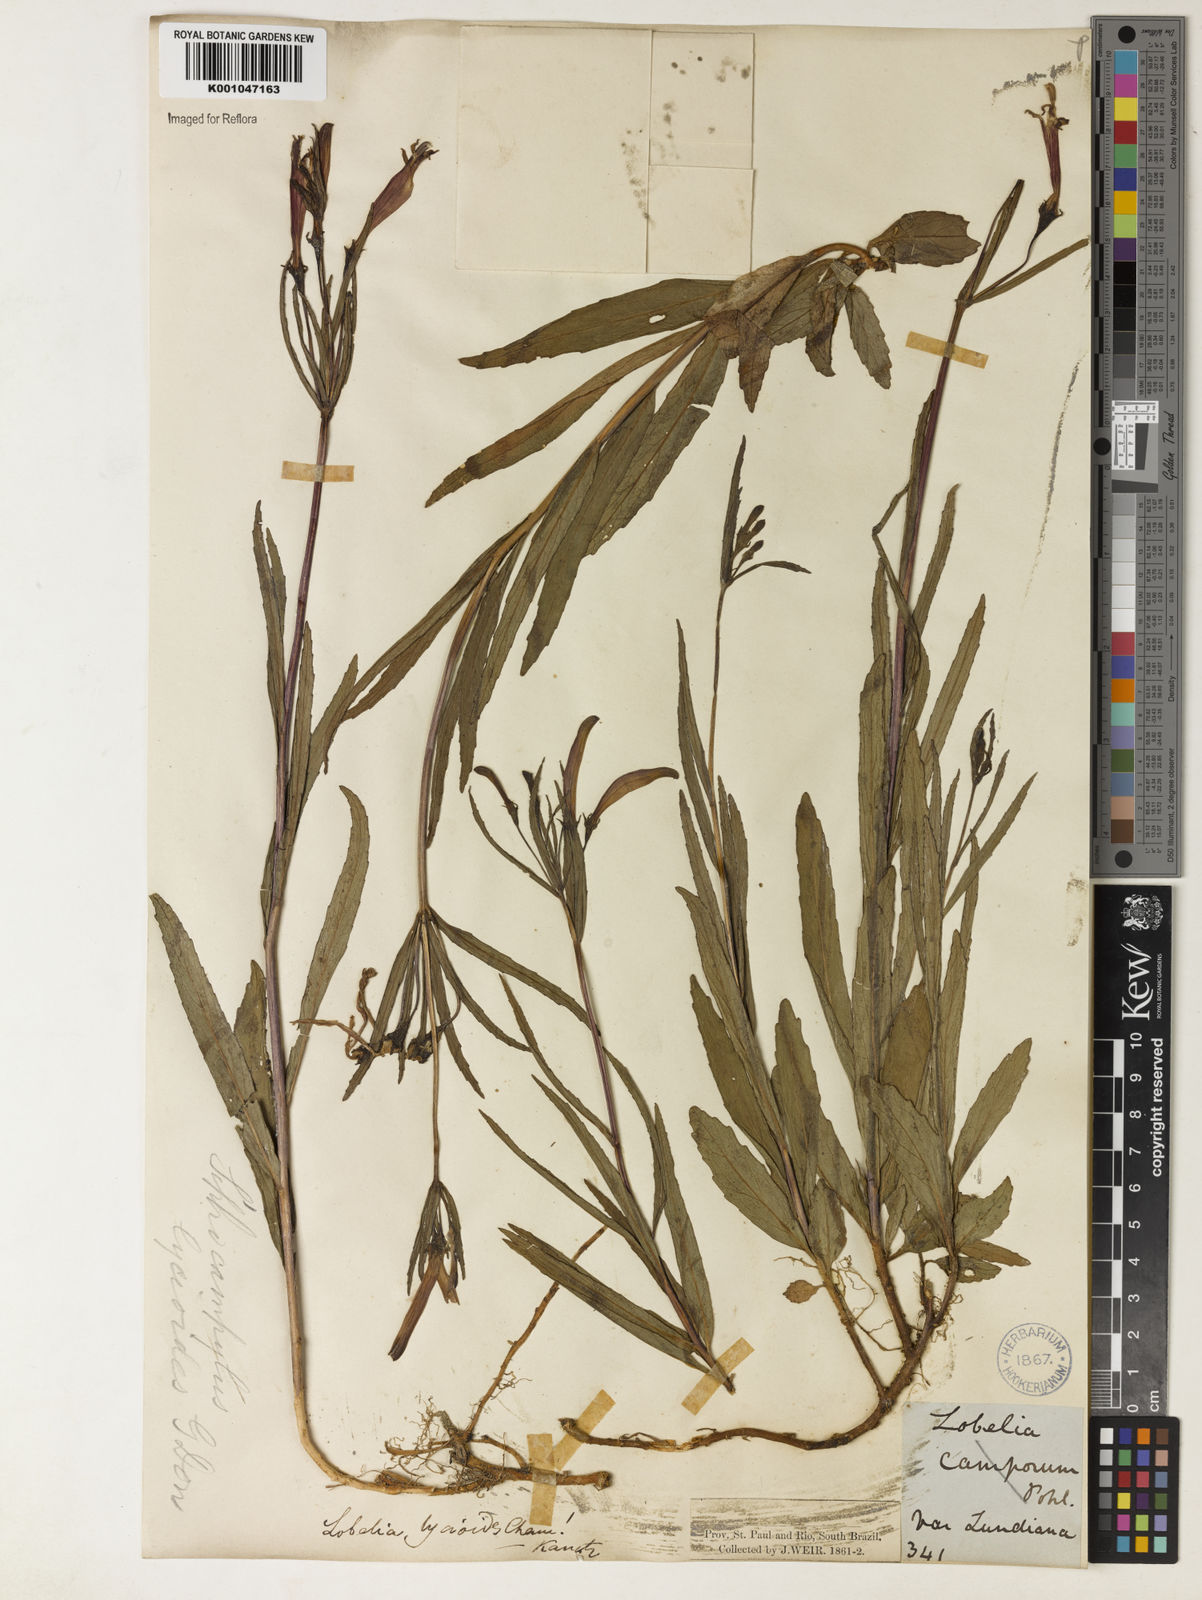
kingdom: Plantae
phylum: Tracheophyta
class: Magnoliopsida
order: Asterales
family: Campanulaceae
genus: Siphocampylus
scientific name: Siphocampylus lycioides
